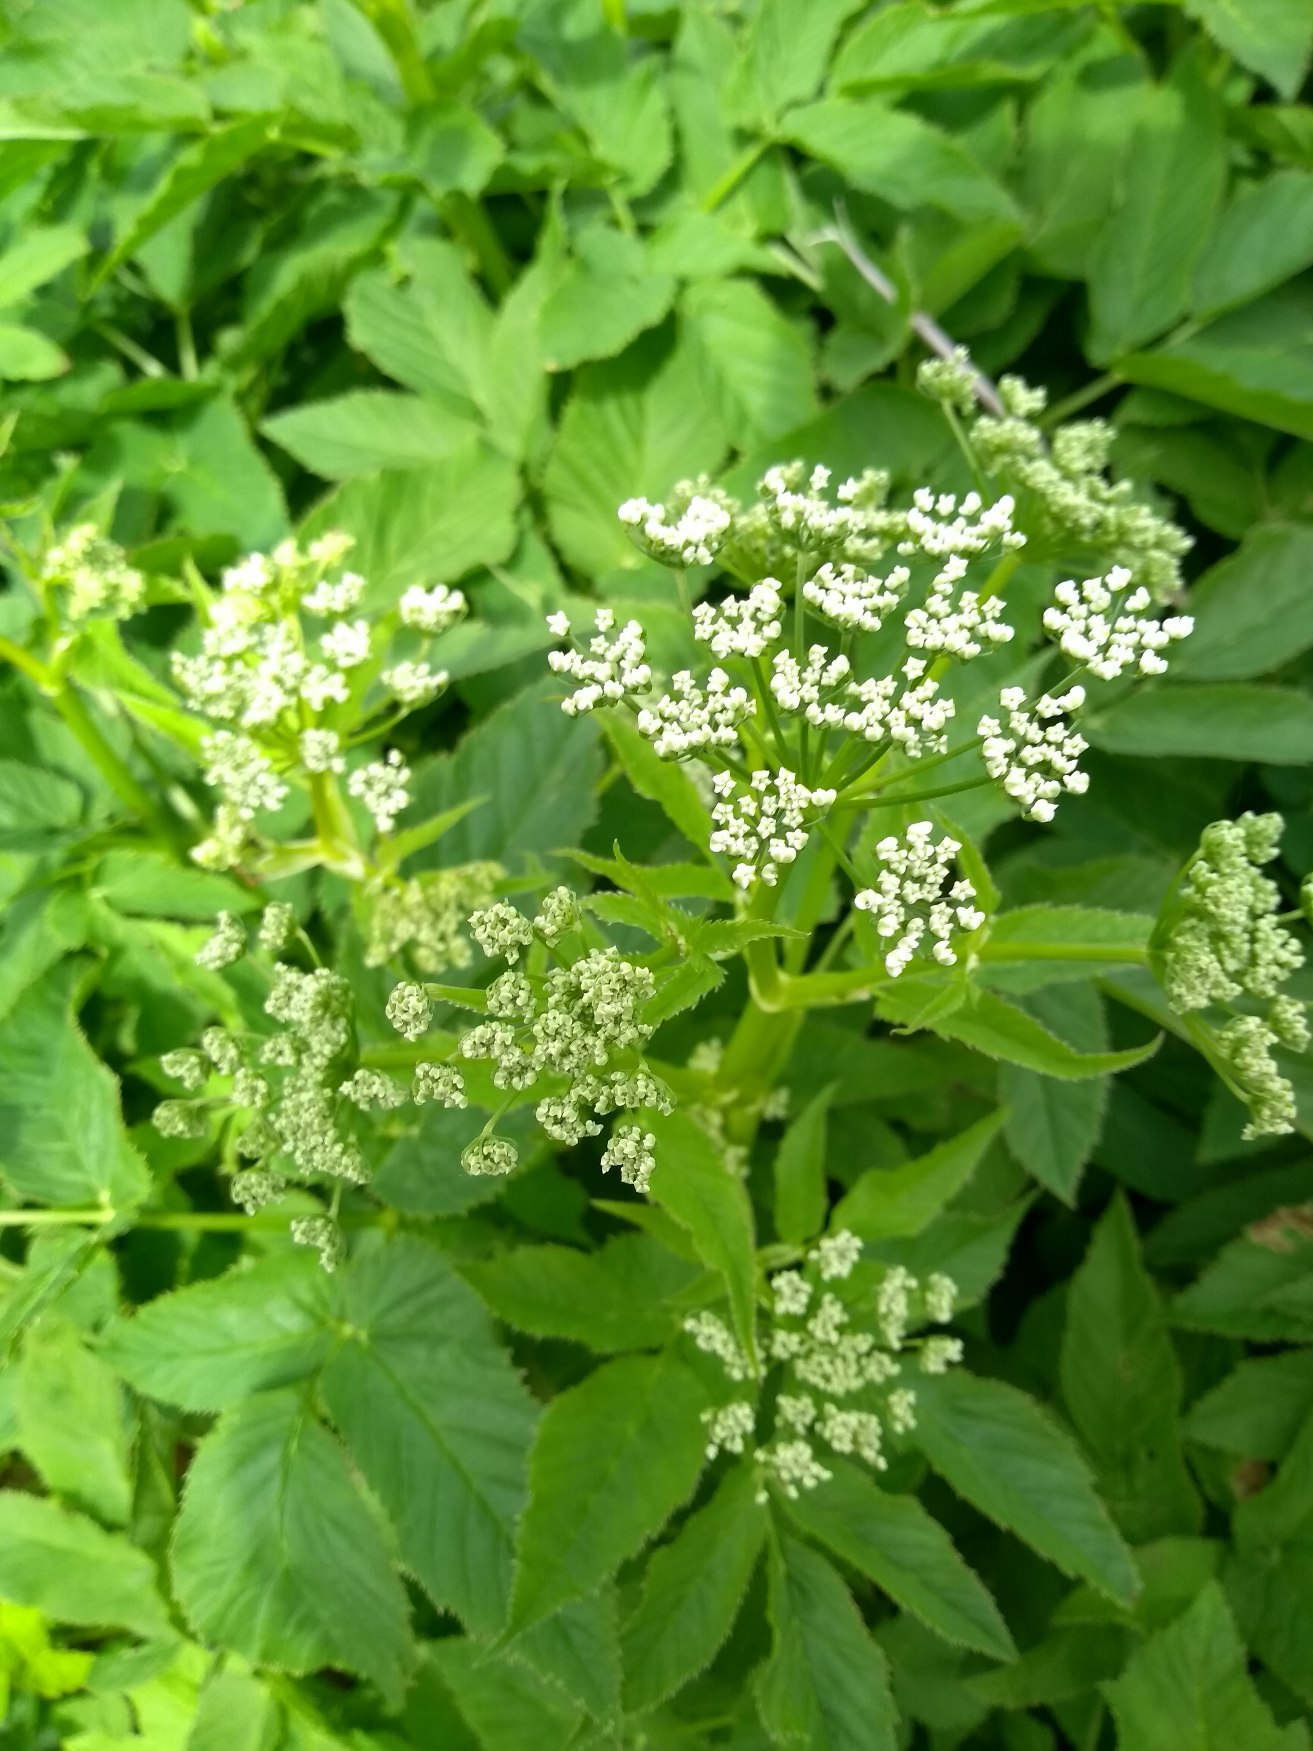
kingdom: Plantae
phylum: Tracheophyta
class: Magnoliopsida
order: Apiales
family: Apiaceae
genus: Aegopodium
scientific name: Aegopodium podagraria
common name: Skvalderkål
